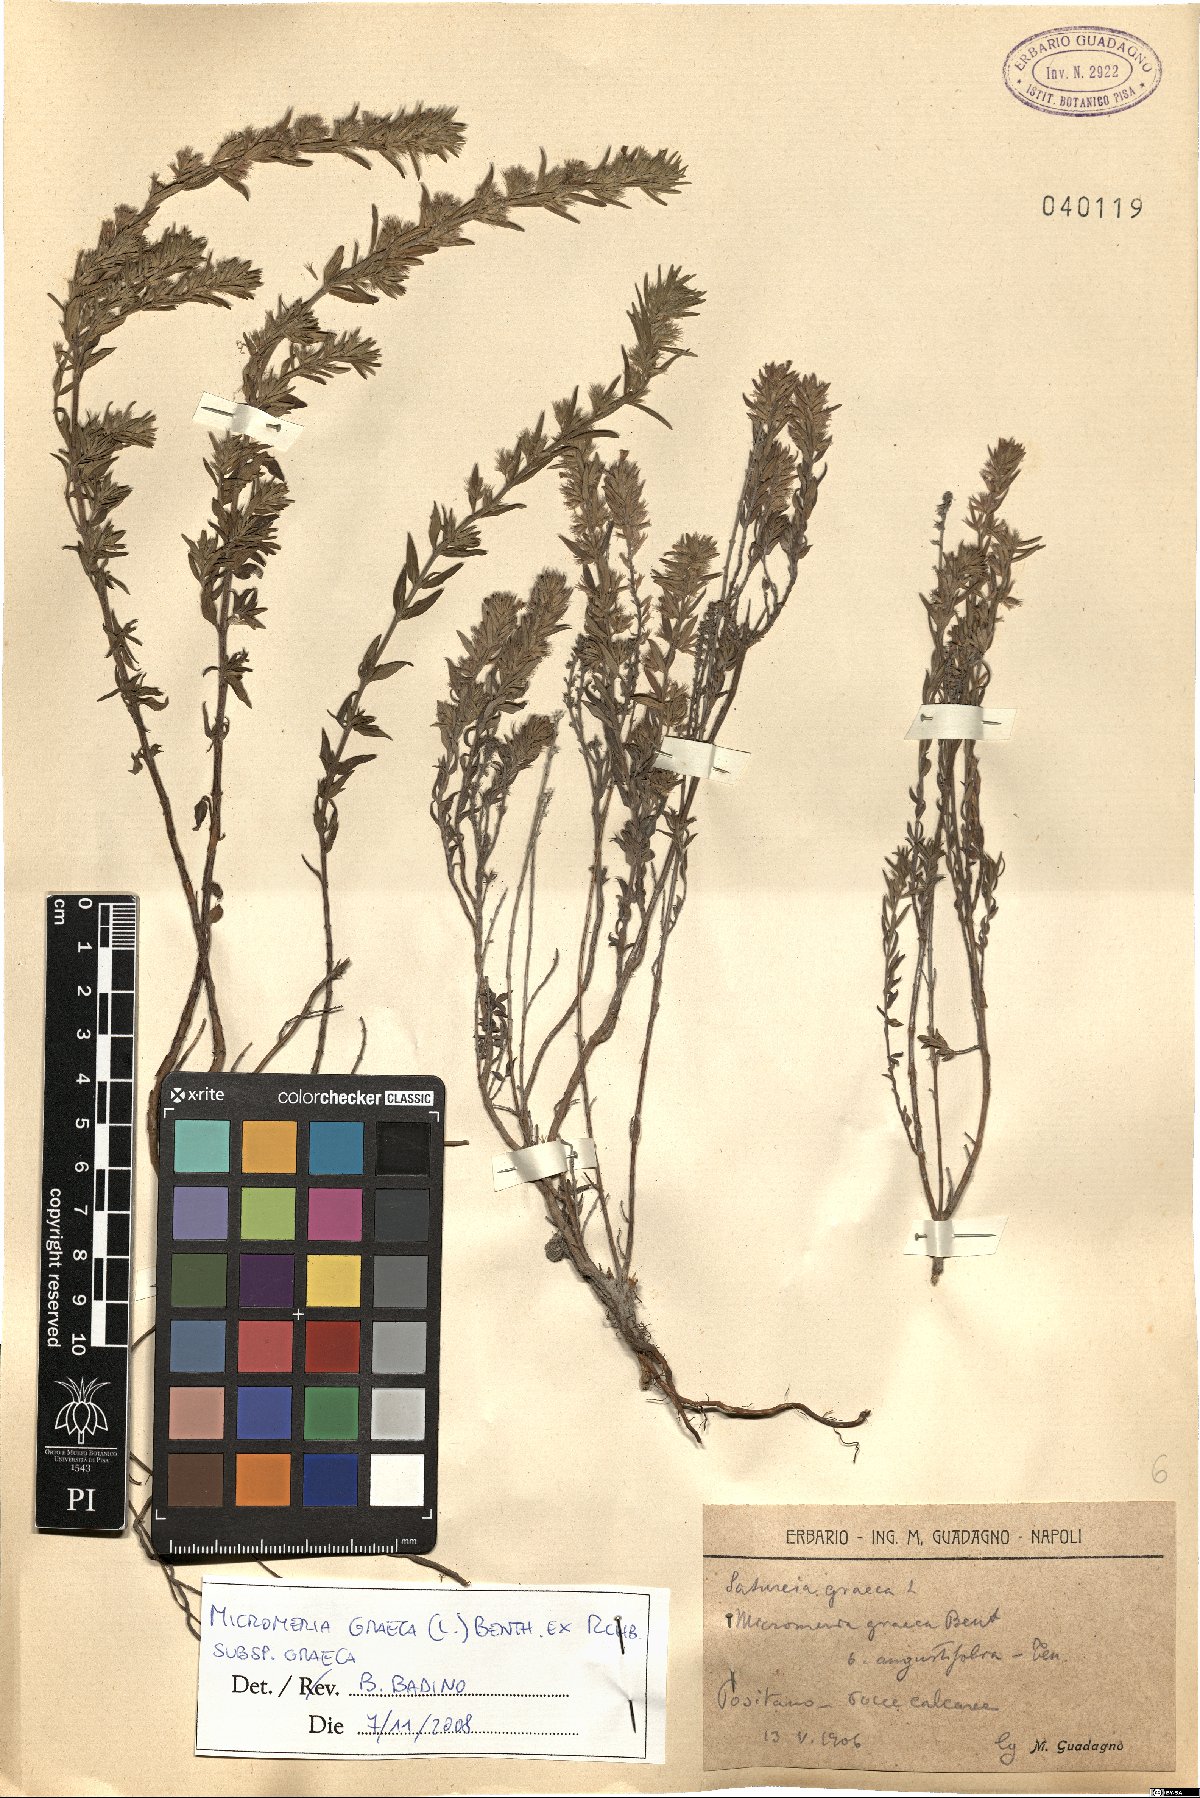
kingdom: Plantae
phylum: Tracheophyta
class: Magnoliopsida
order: Lamiales
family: Lamiaceae
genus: Micromeria
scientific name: Micromeria graeca
